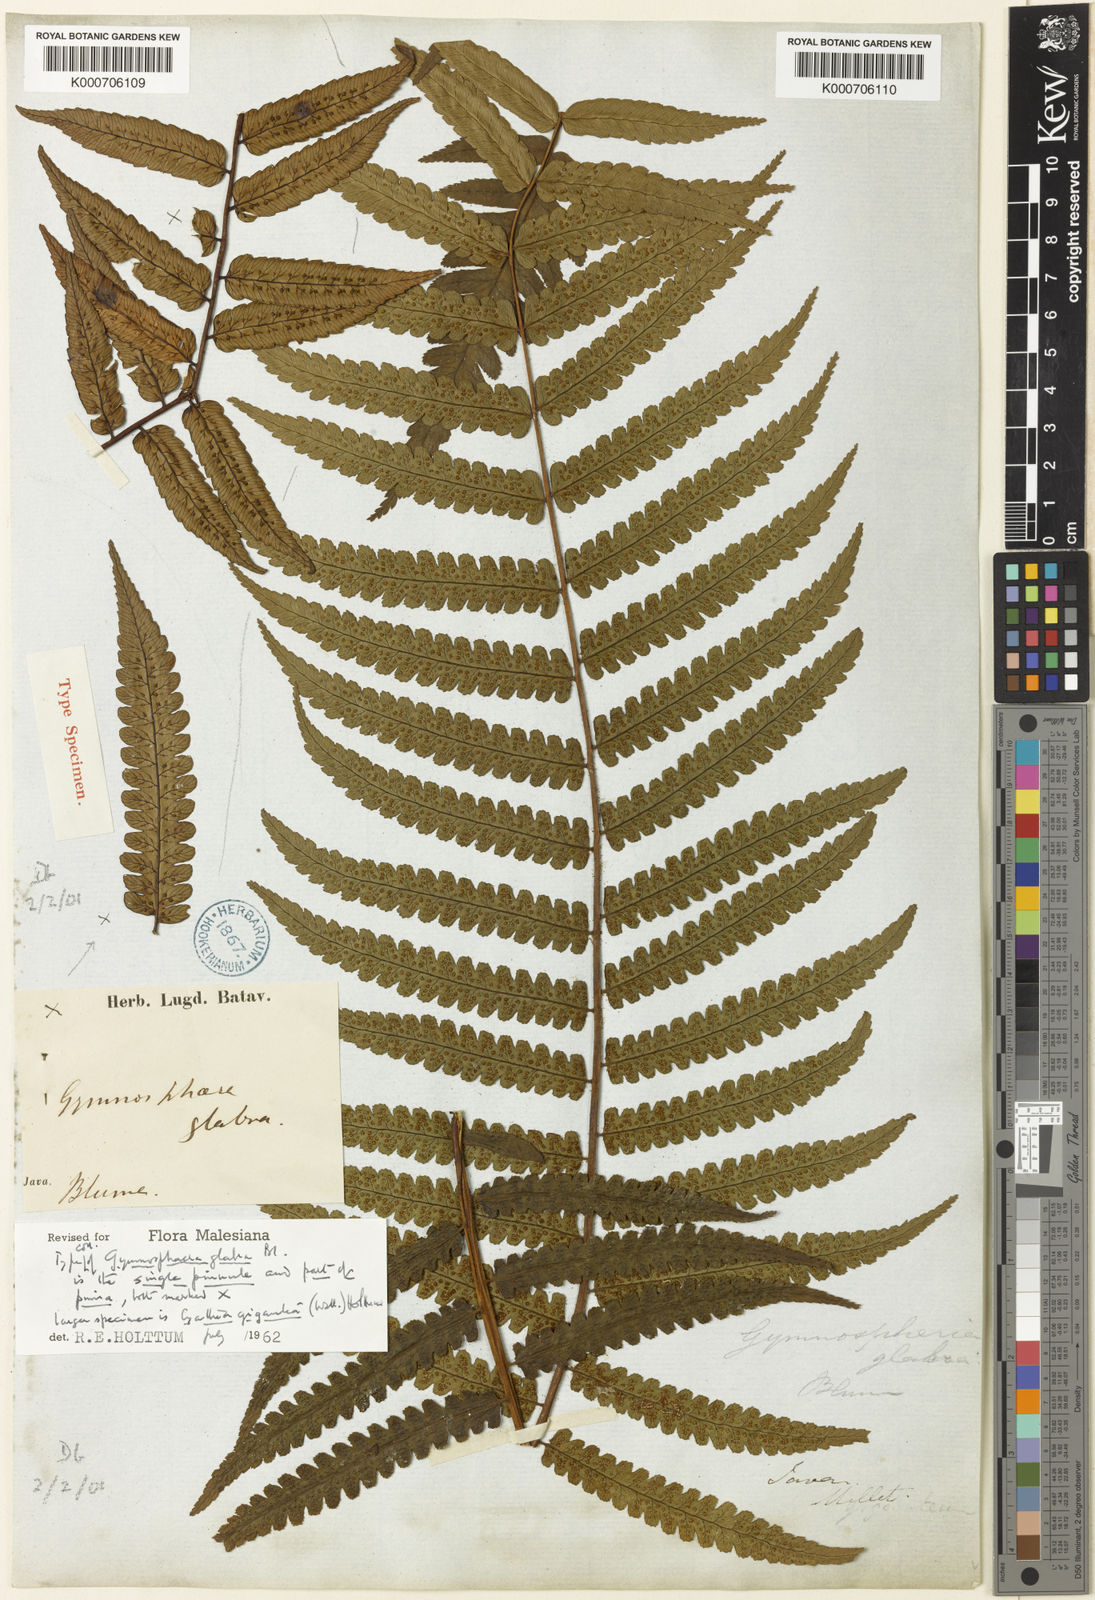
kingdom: Plantae
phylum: Tracheophyta
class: Polypodiopsida
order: Cyatheales
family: Cyatheaceae
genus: Gymnosphaera
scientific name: Gymnosphaera glabra
